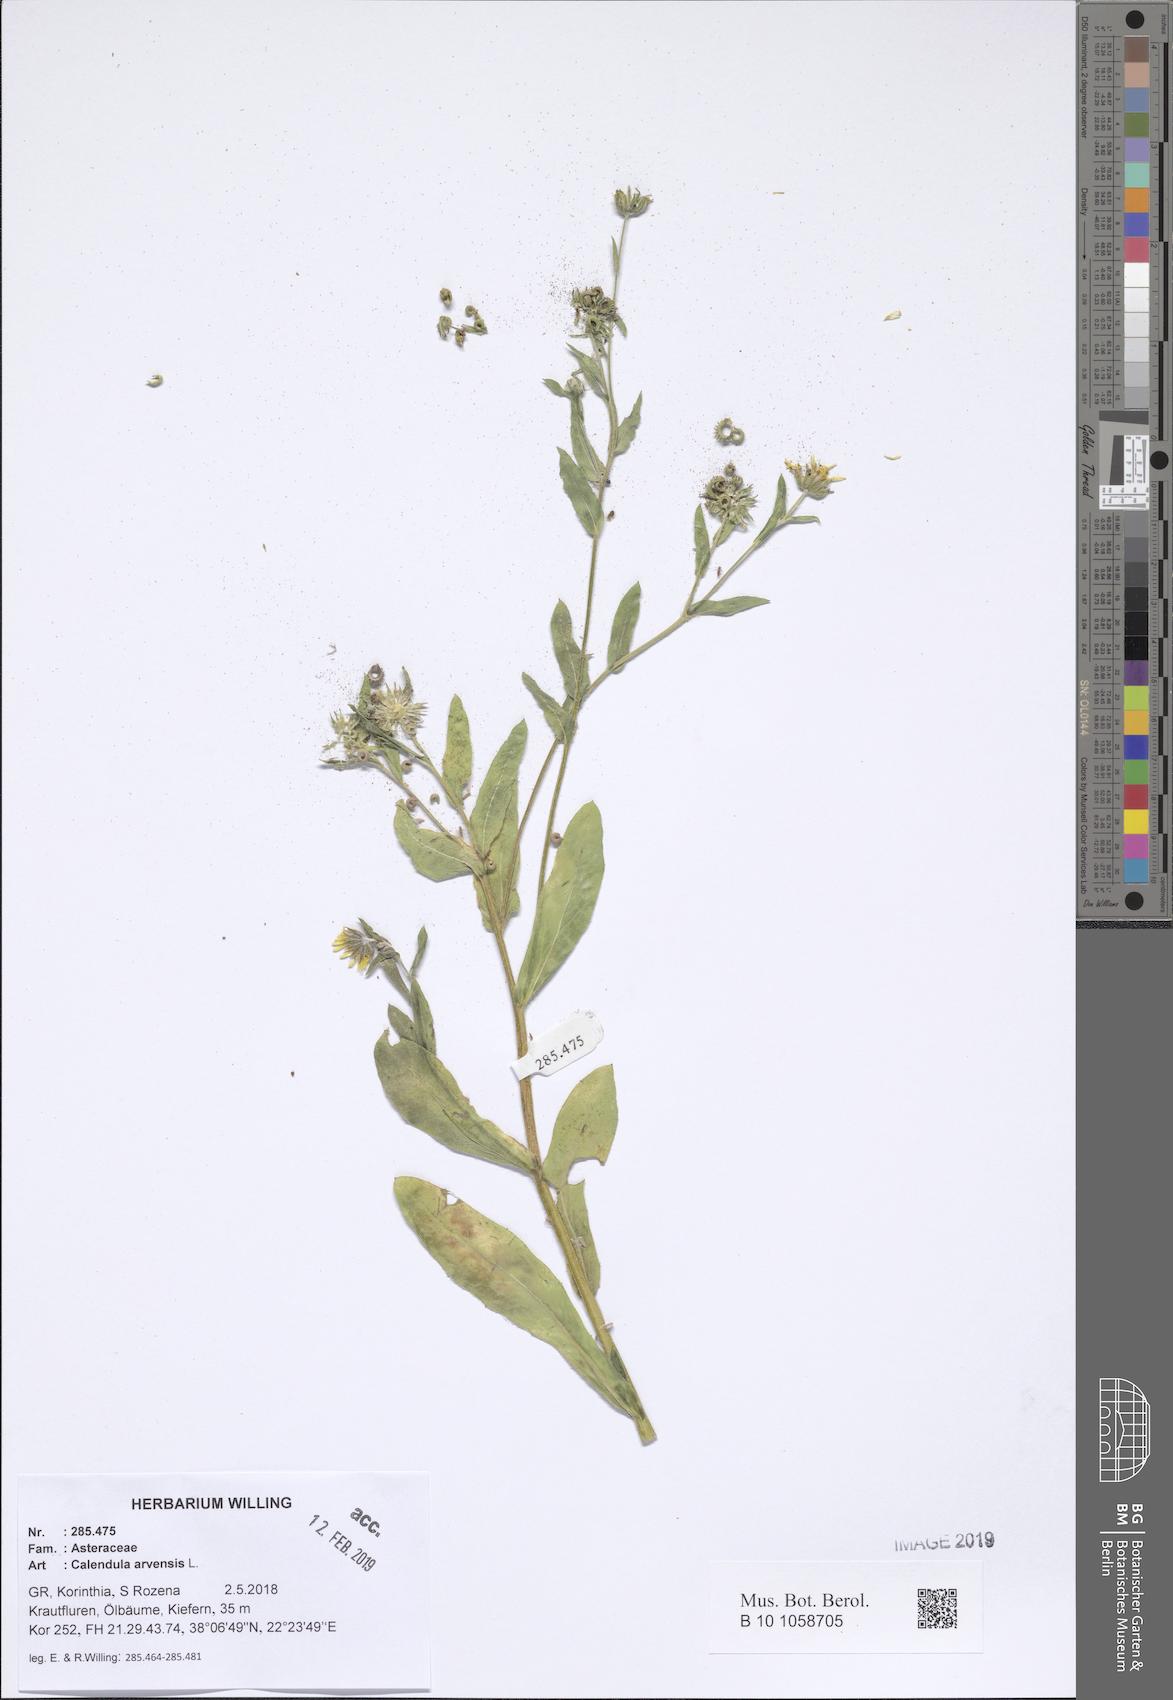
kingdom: Plantae
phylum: Tracheophyta
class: Magnoliopsida
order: Asterales
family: Asteraceae
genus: Calendula
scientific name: Calendula arvensis
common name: Field marigold
